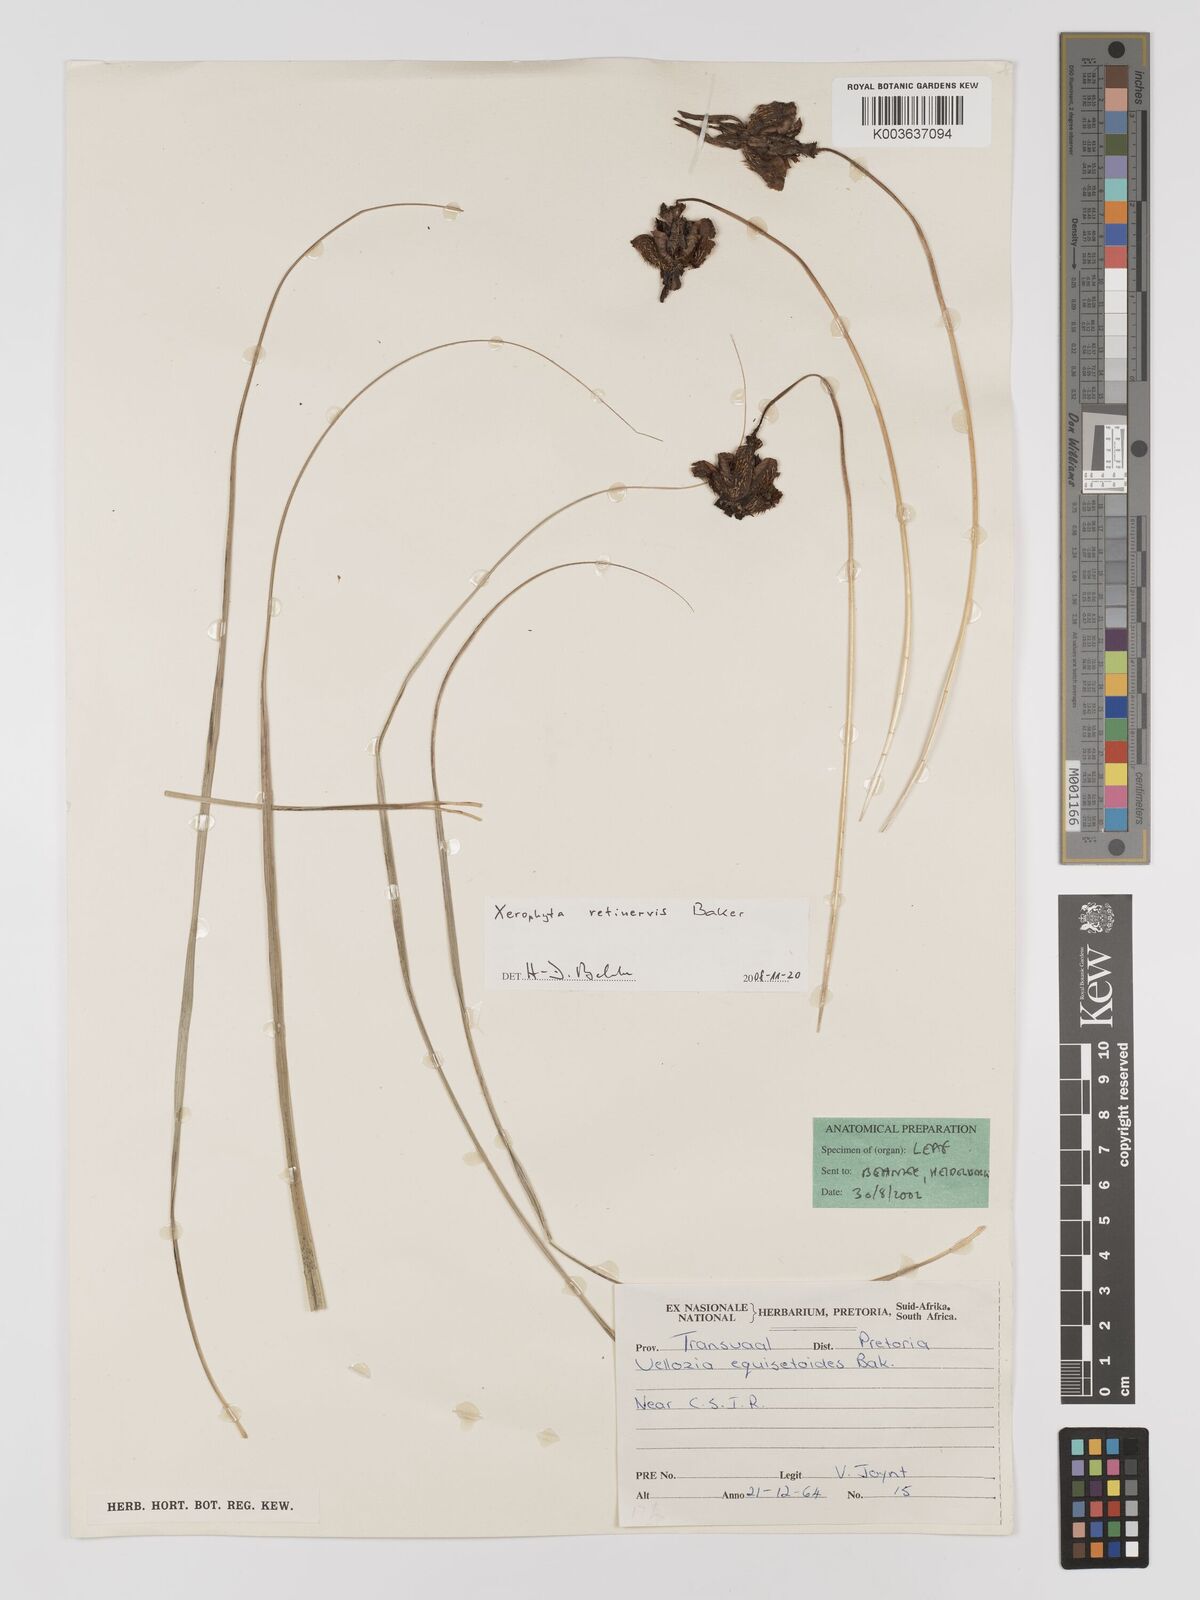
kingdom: Plantae
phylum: Tracheophyta
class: Liliopsida
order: Pandanales
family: Velloziaceae
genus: Xerophyta
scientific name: Xerophyta retinervis
